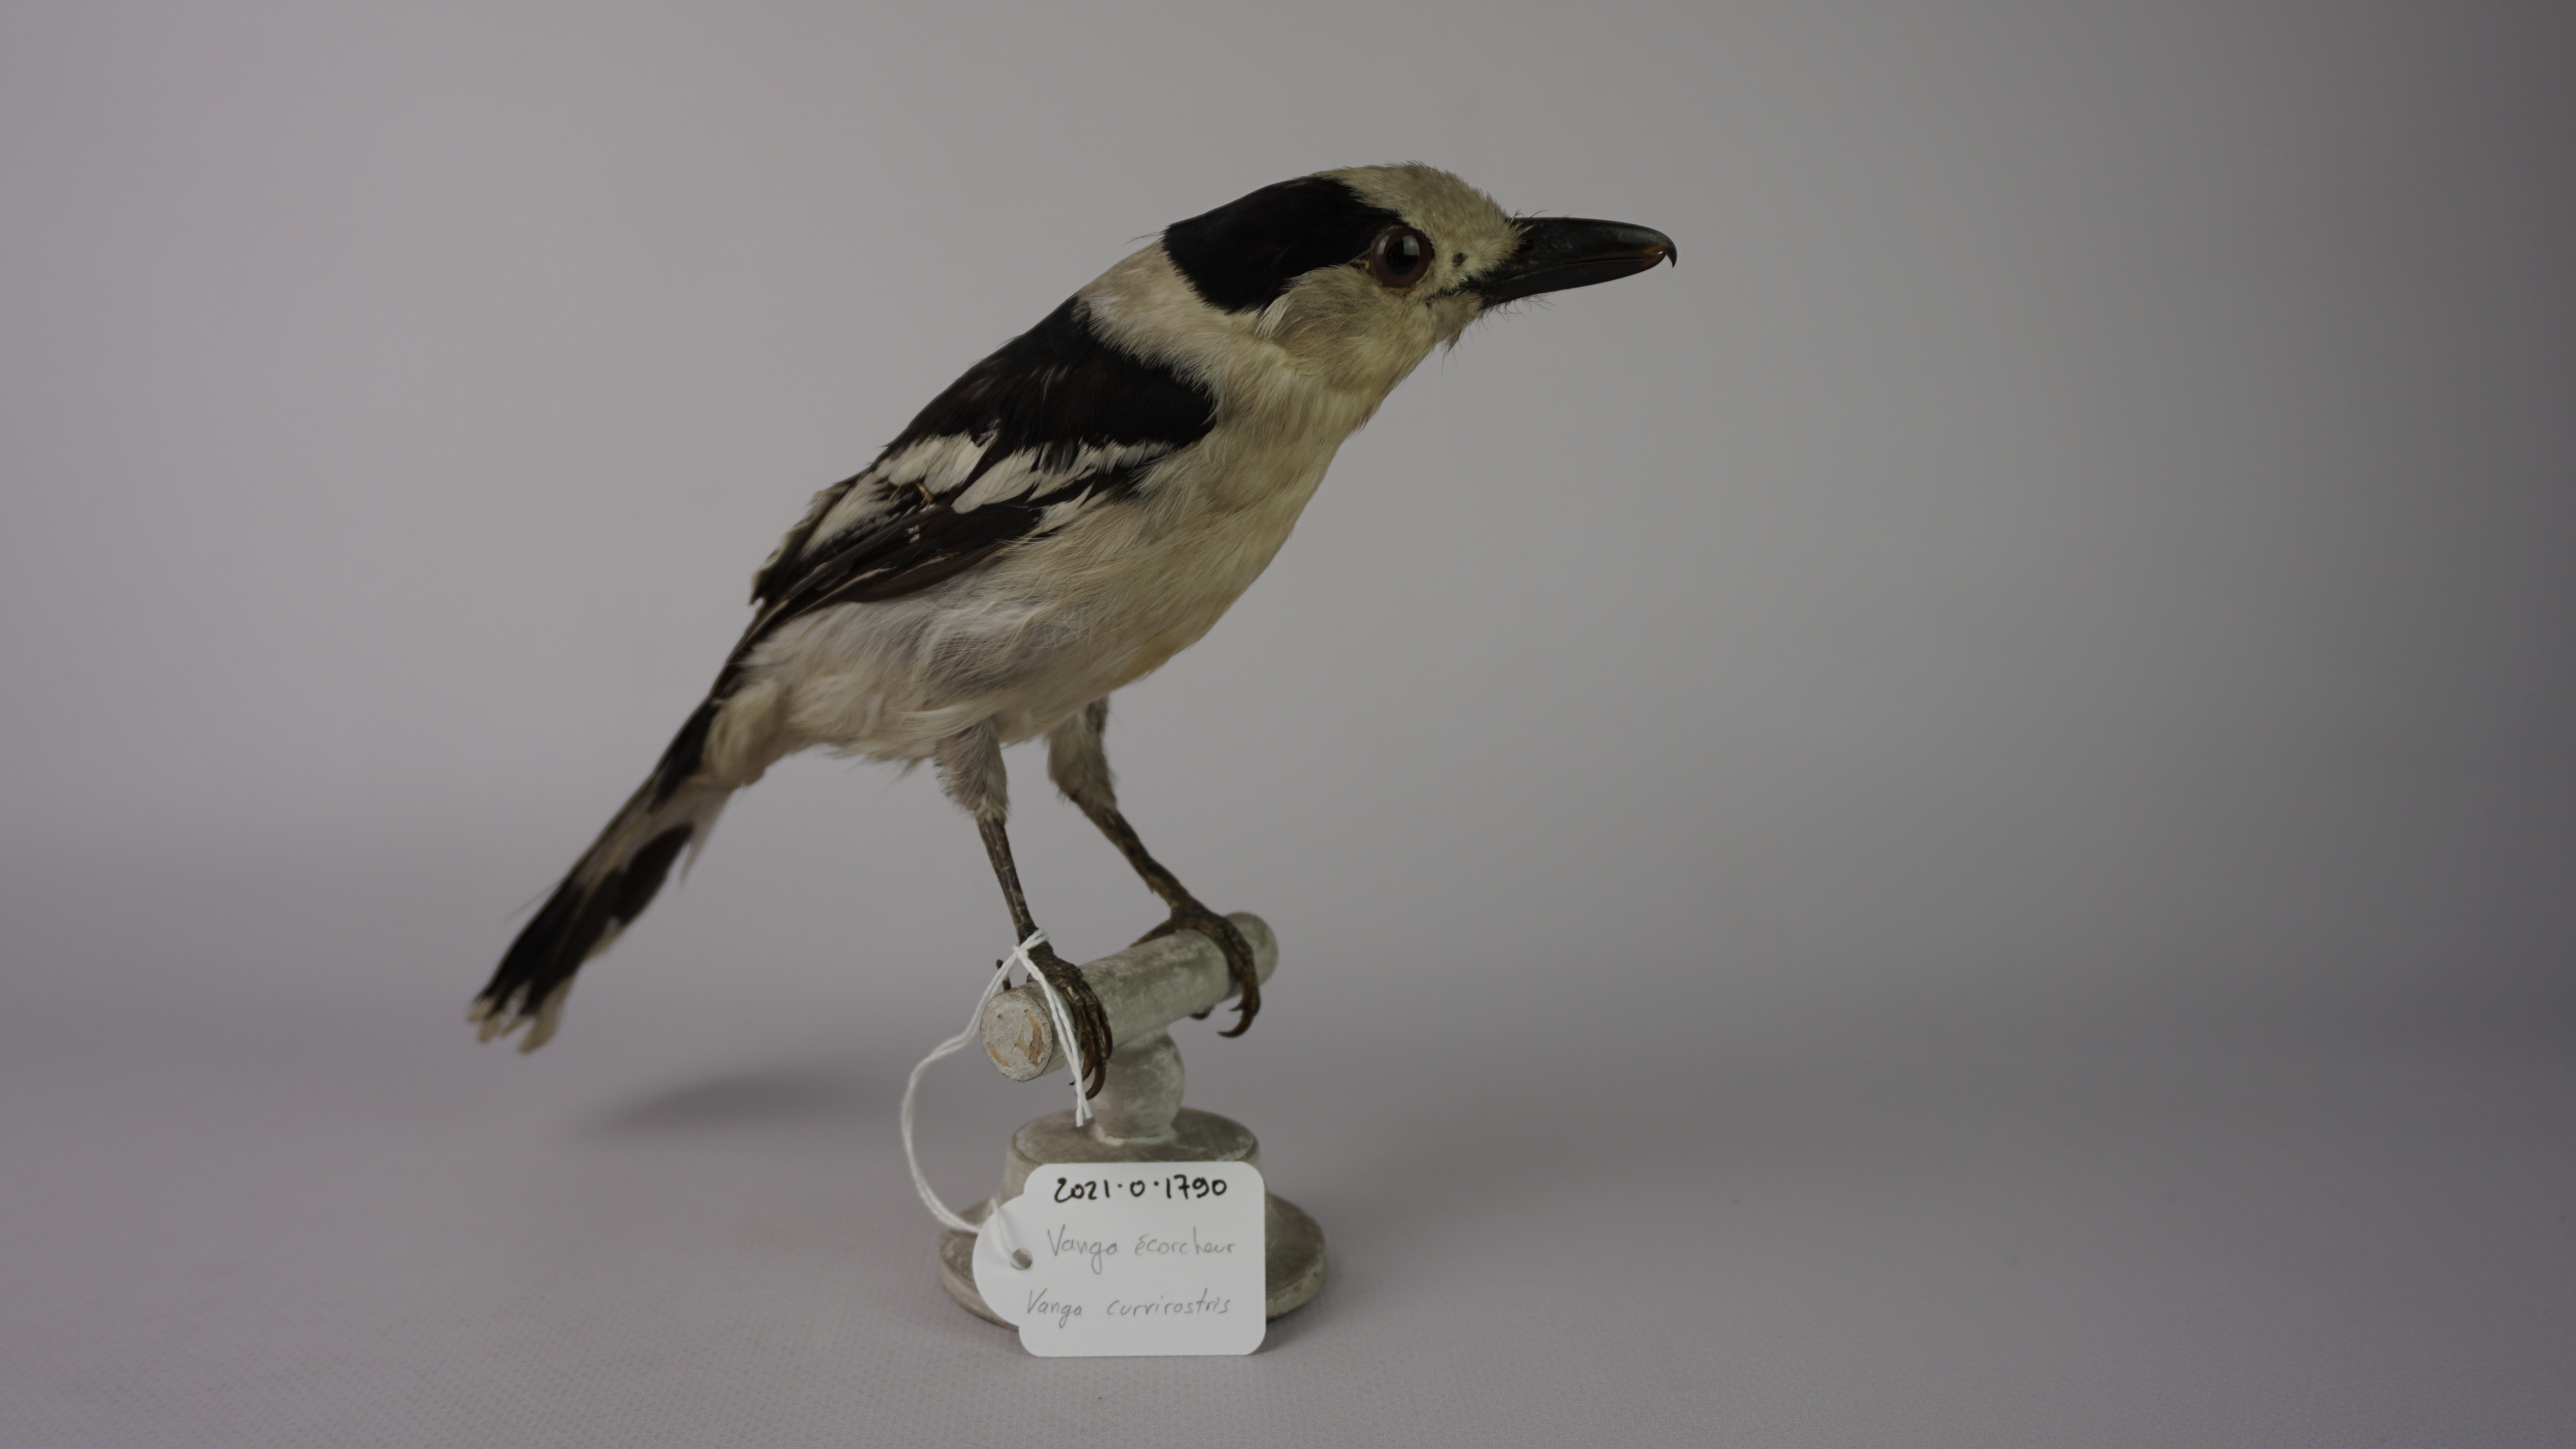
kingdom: Animalia
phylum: Chordata
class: Aves
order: Passeriformes
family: Vangidae
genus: Vanga
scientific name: Vanga curvirostris
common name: Hook-billed vanga
